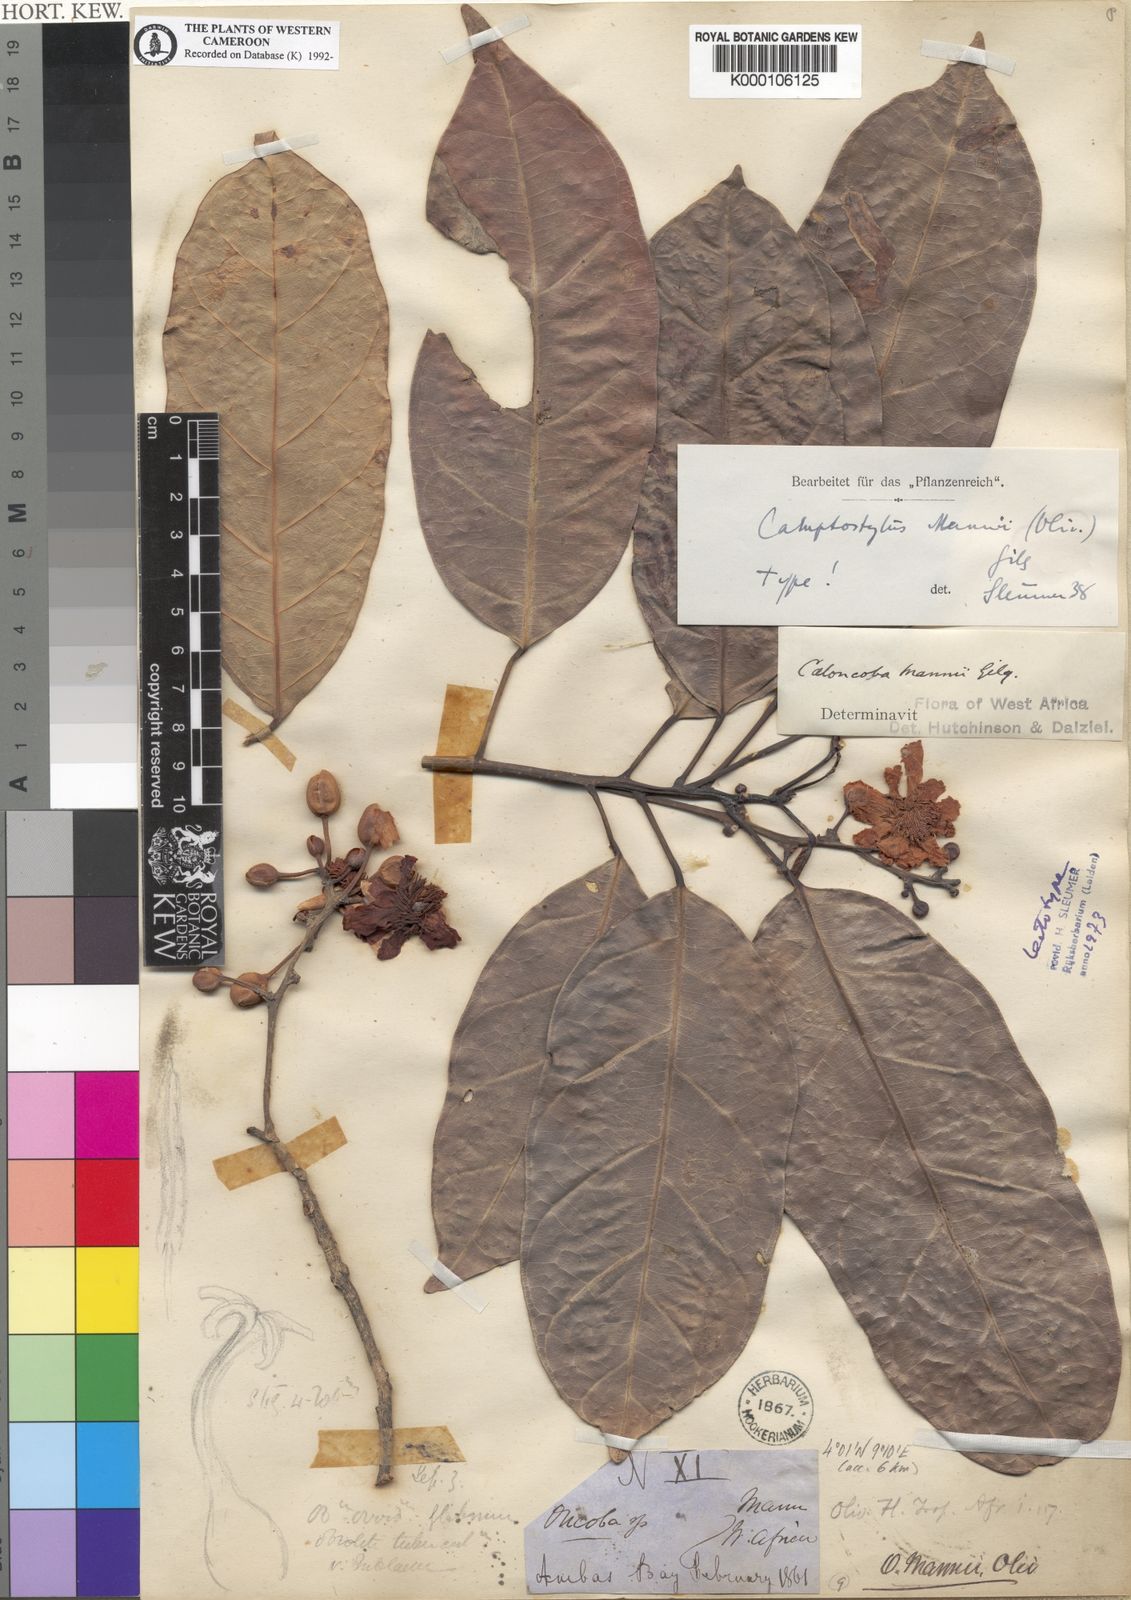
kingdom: Plantae
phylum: Tracheophyta
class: Magnoliopsida
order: Malpighiales
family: Achariaceae
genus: Camptostylus
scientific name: Camptostylus mannii
